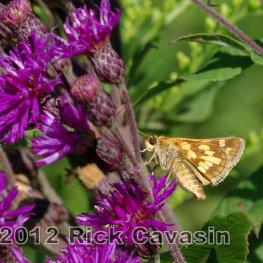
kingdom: Animalia
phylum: Arthropoda
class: Insecta
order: Lepidoptera
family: Hesperiidae
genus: Polites
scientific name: Polites coras
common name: Peck's Skipper
